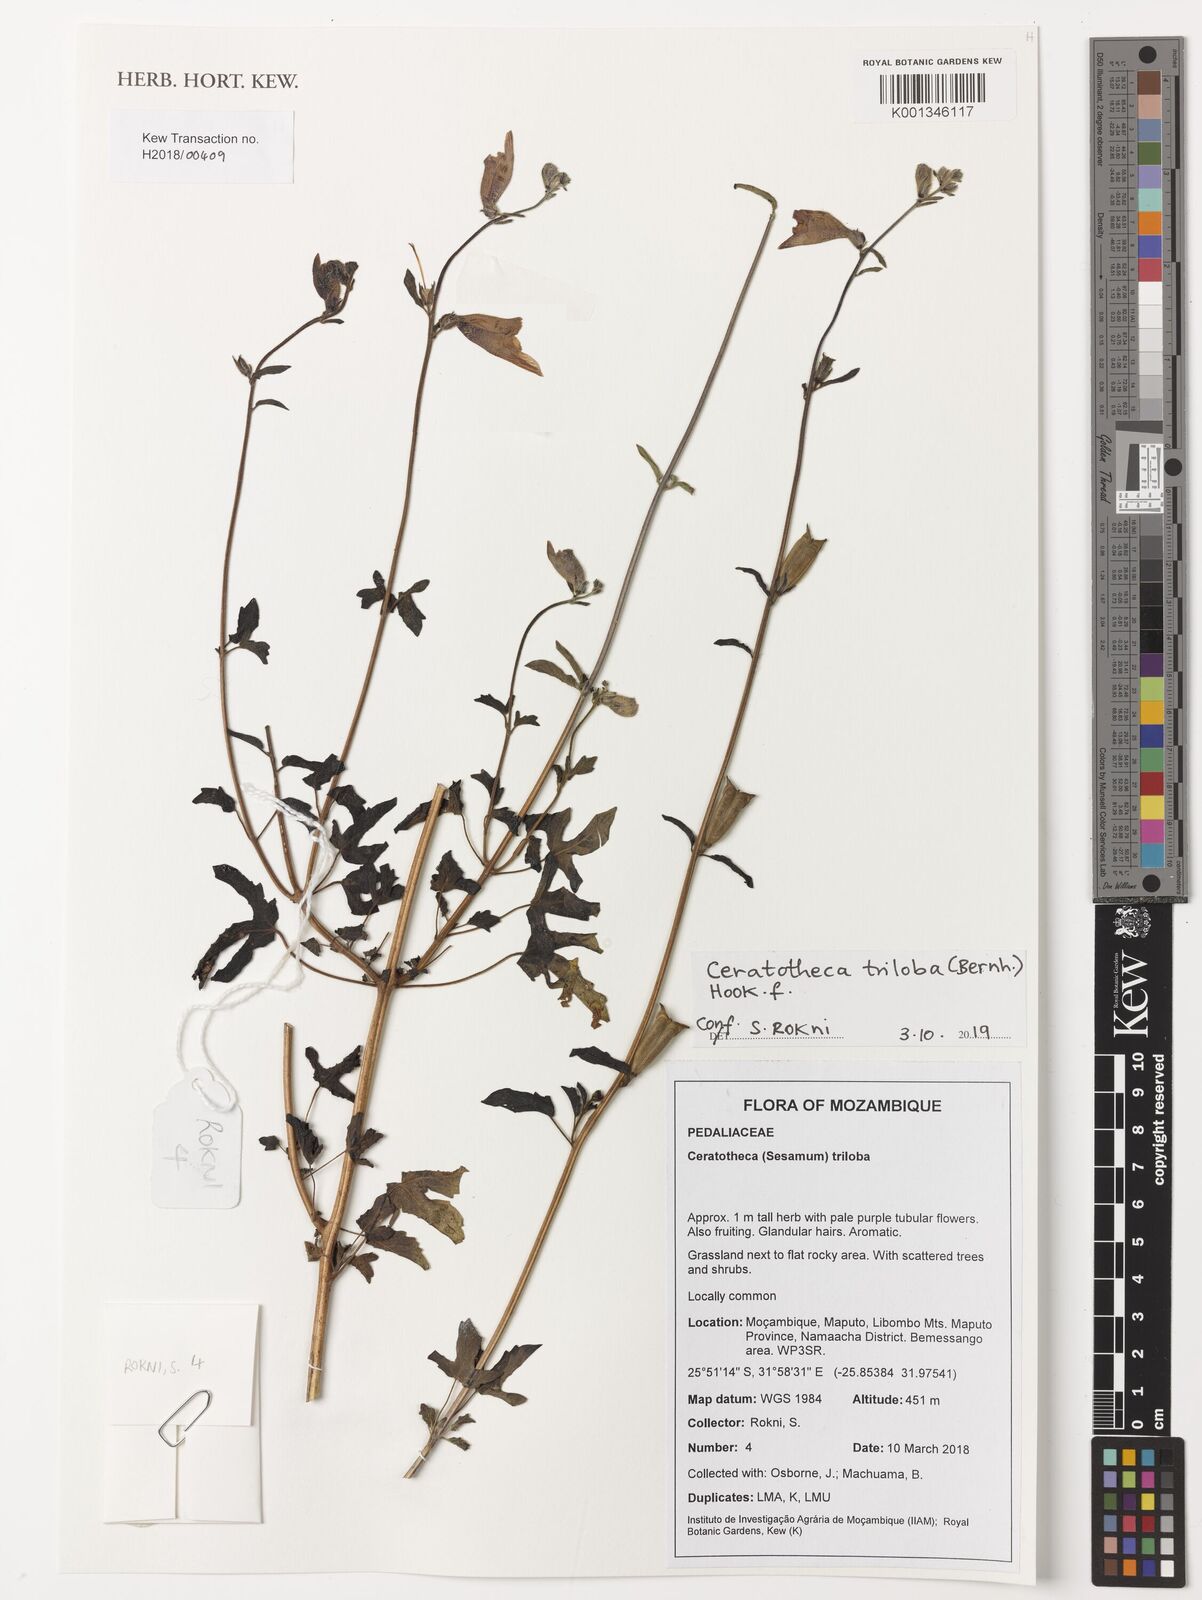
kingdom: Plantae
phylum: Tracheophyta
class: Magnoliopsida
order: Lamiales
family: Pedaliaceae
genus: Sesamum
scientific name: Sesamum trilobum
